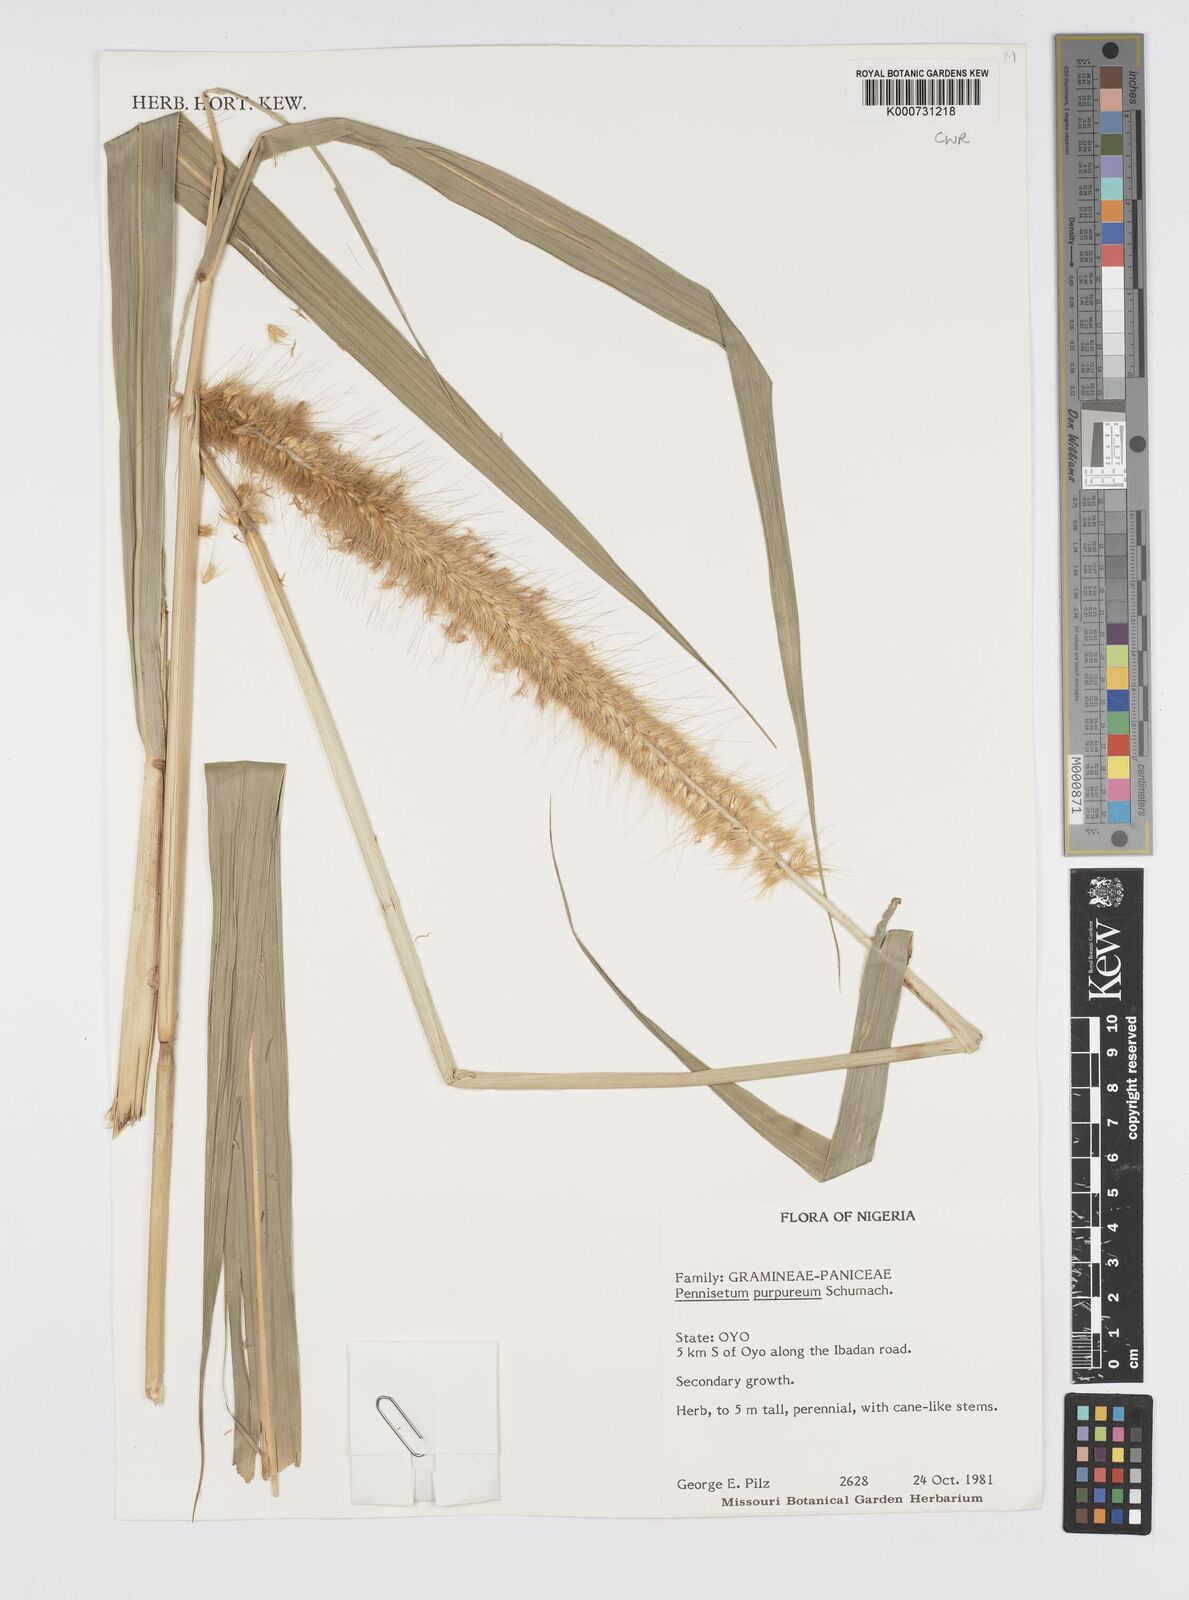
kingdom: Plantae
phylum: Tracheophyta
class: Liliopsida
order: Poales
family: Poaceae
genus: Cenchrus
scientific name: Cenchrus purpureus
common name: Elephant grass
